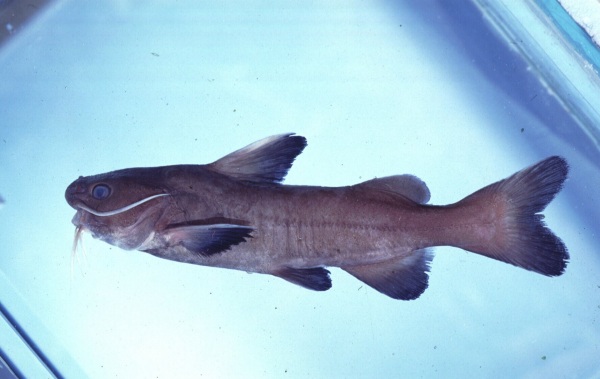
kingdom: Animalia
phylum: Chordata
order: Siluriformes
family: Ariidae
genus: Galeichthys
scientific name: Galeichthys ater
